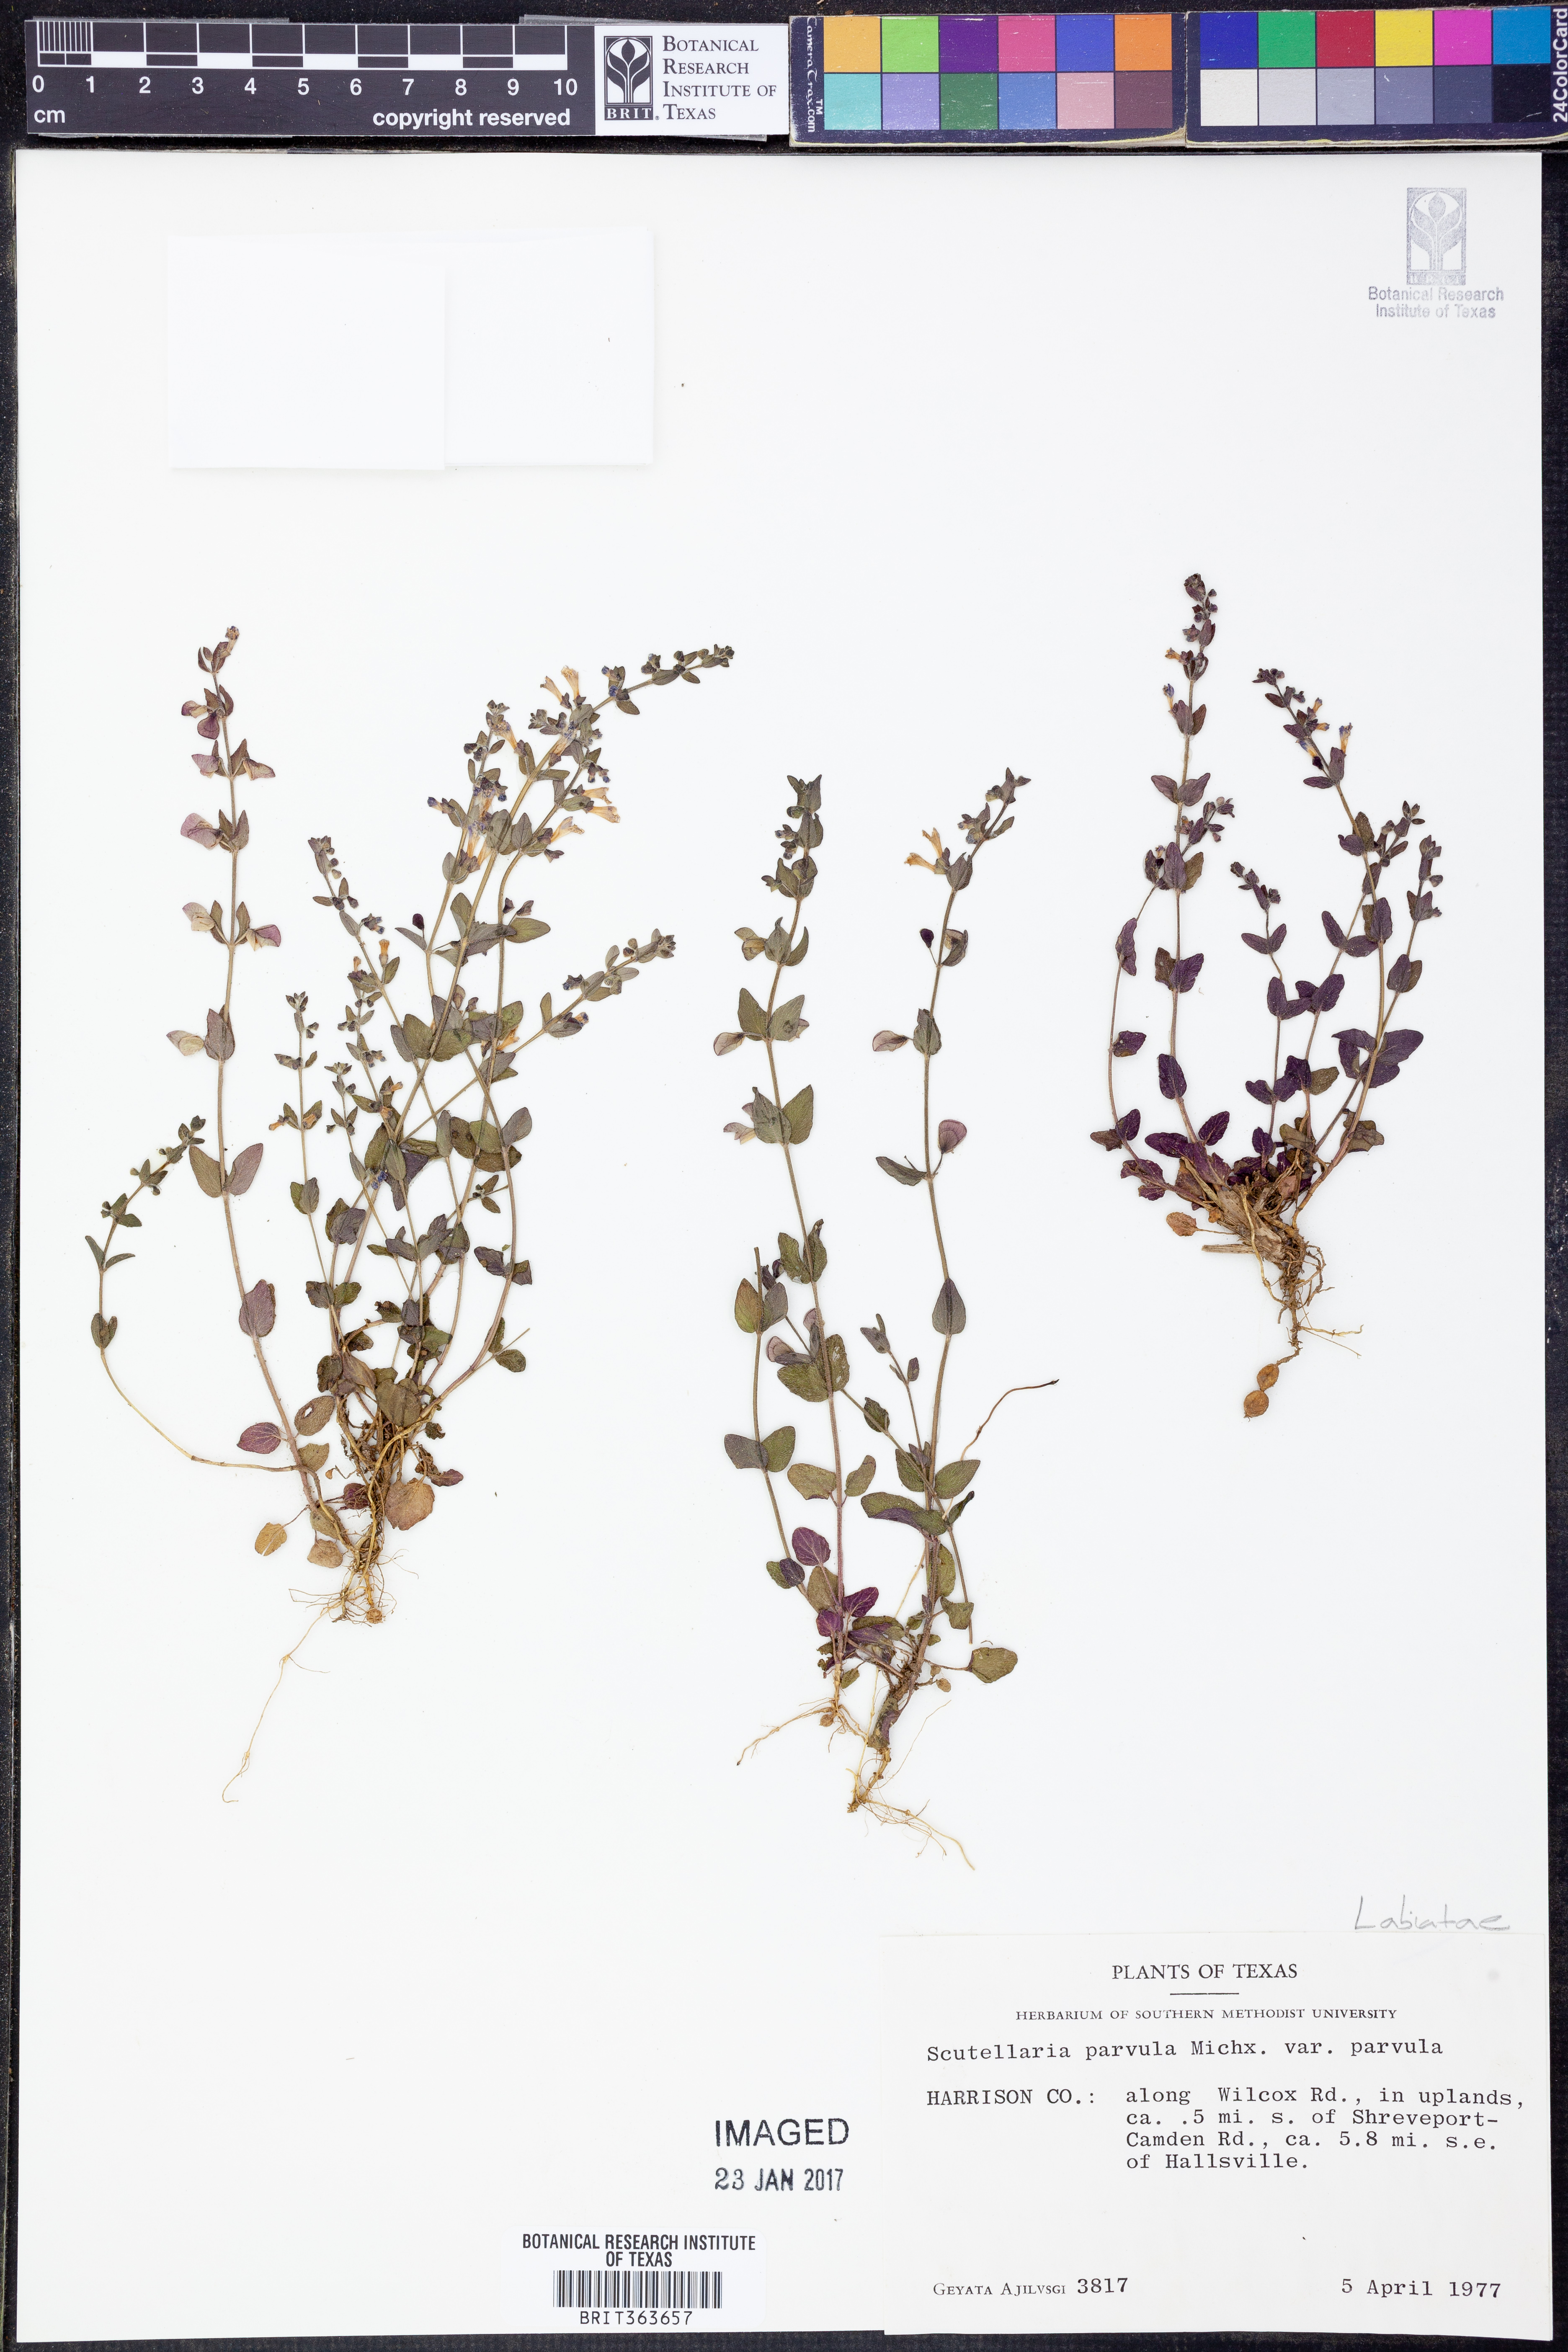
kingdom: Plantae
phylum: Tracheophyta
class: Magnoliopsida
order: Lamiales
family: Lamiaceae
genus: Scutellaria
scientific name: Scutellaria parvula
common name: Little scullcap
